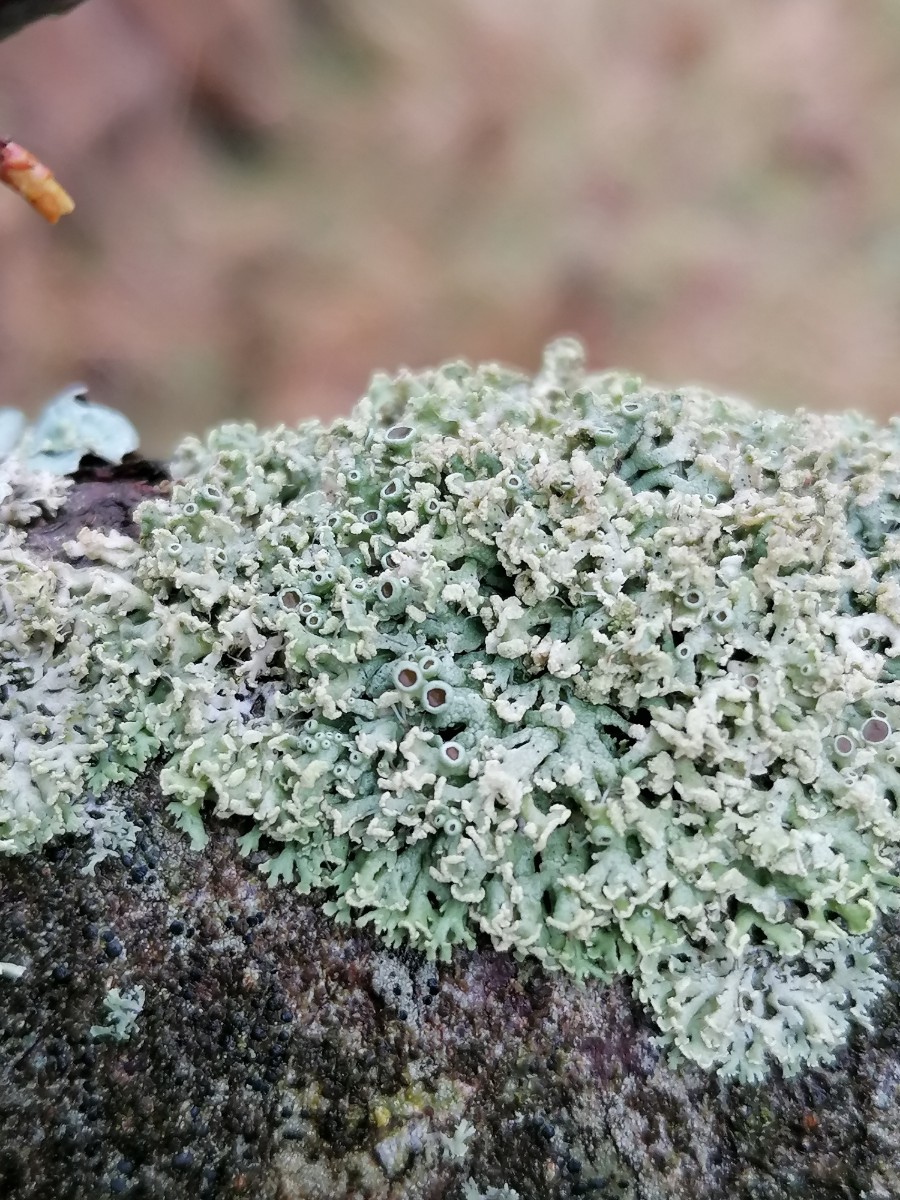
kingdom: Fungi
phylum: Ascomycota
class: Lecanoromycetes
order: Caliciales
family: Physciaceae
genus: Physcia
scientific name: Physcia tenella
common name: spæd rosetlav
